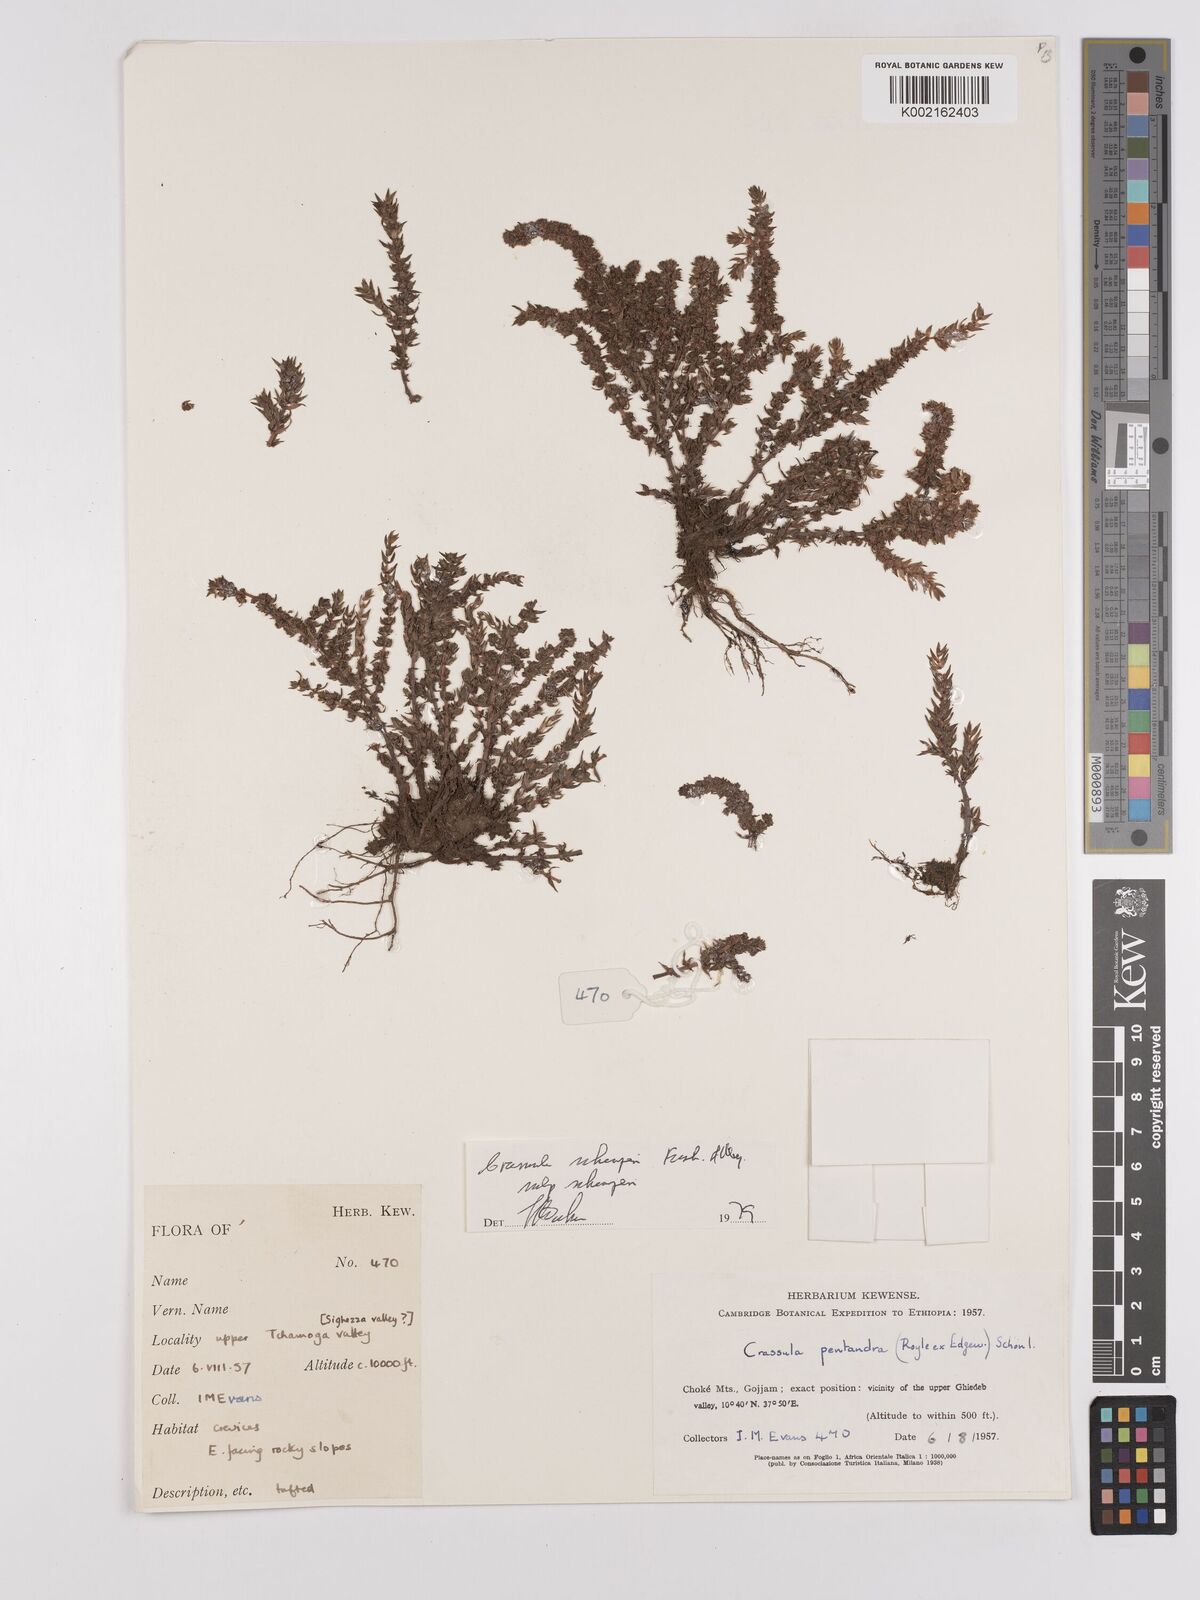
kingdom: Plantae
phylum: Tracheophyta
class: Magnoliopsida
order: Saxifragales
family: Crassulaceae
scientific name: Crassulaceae
